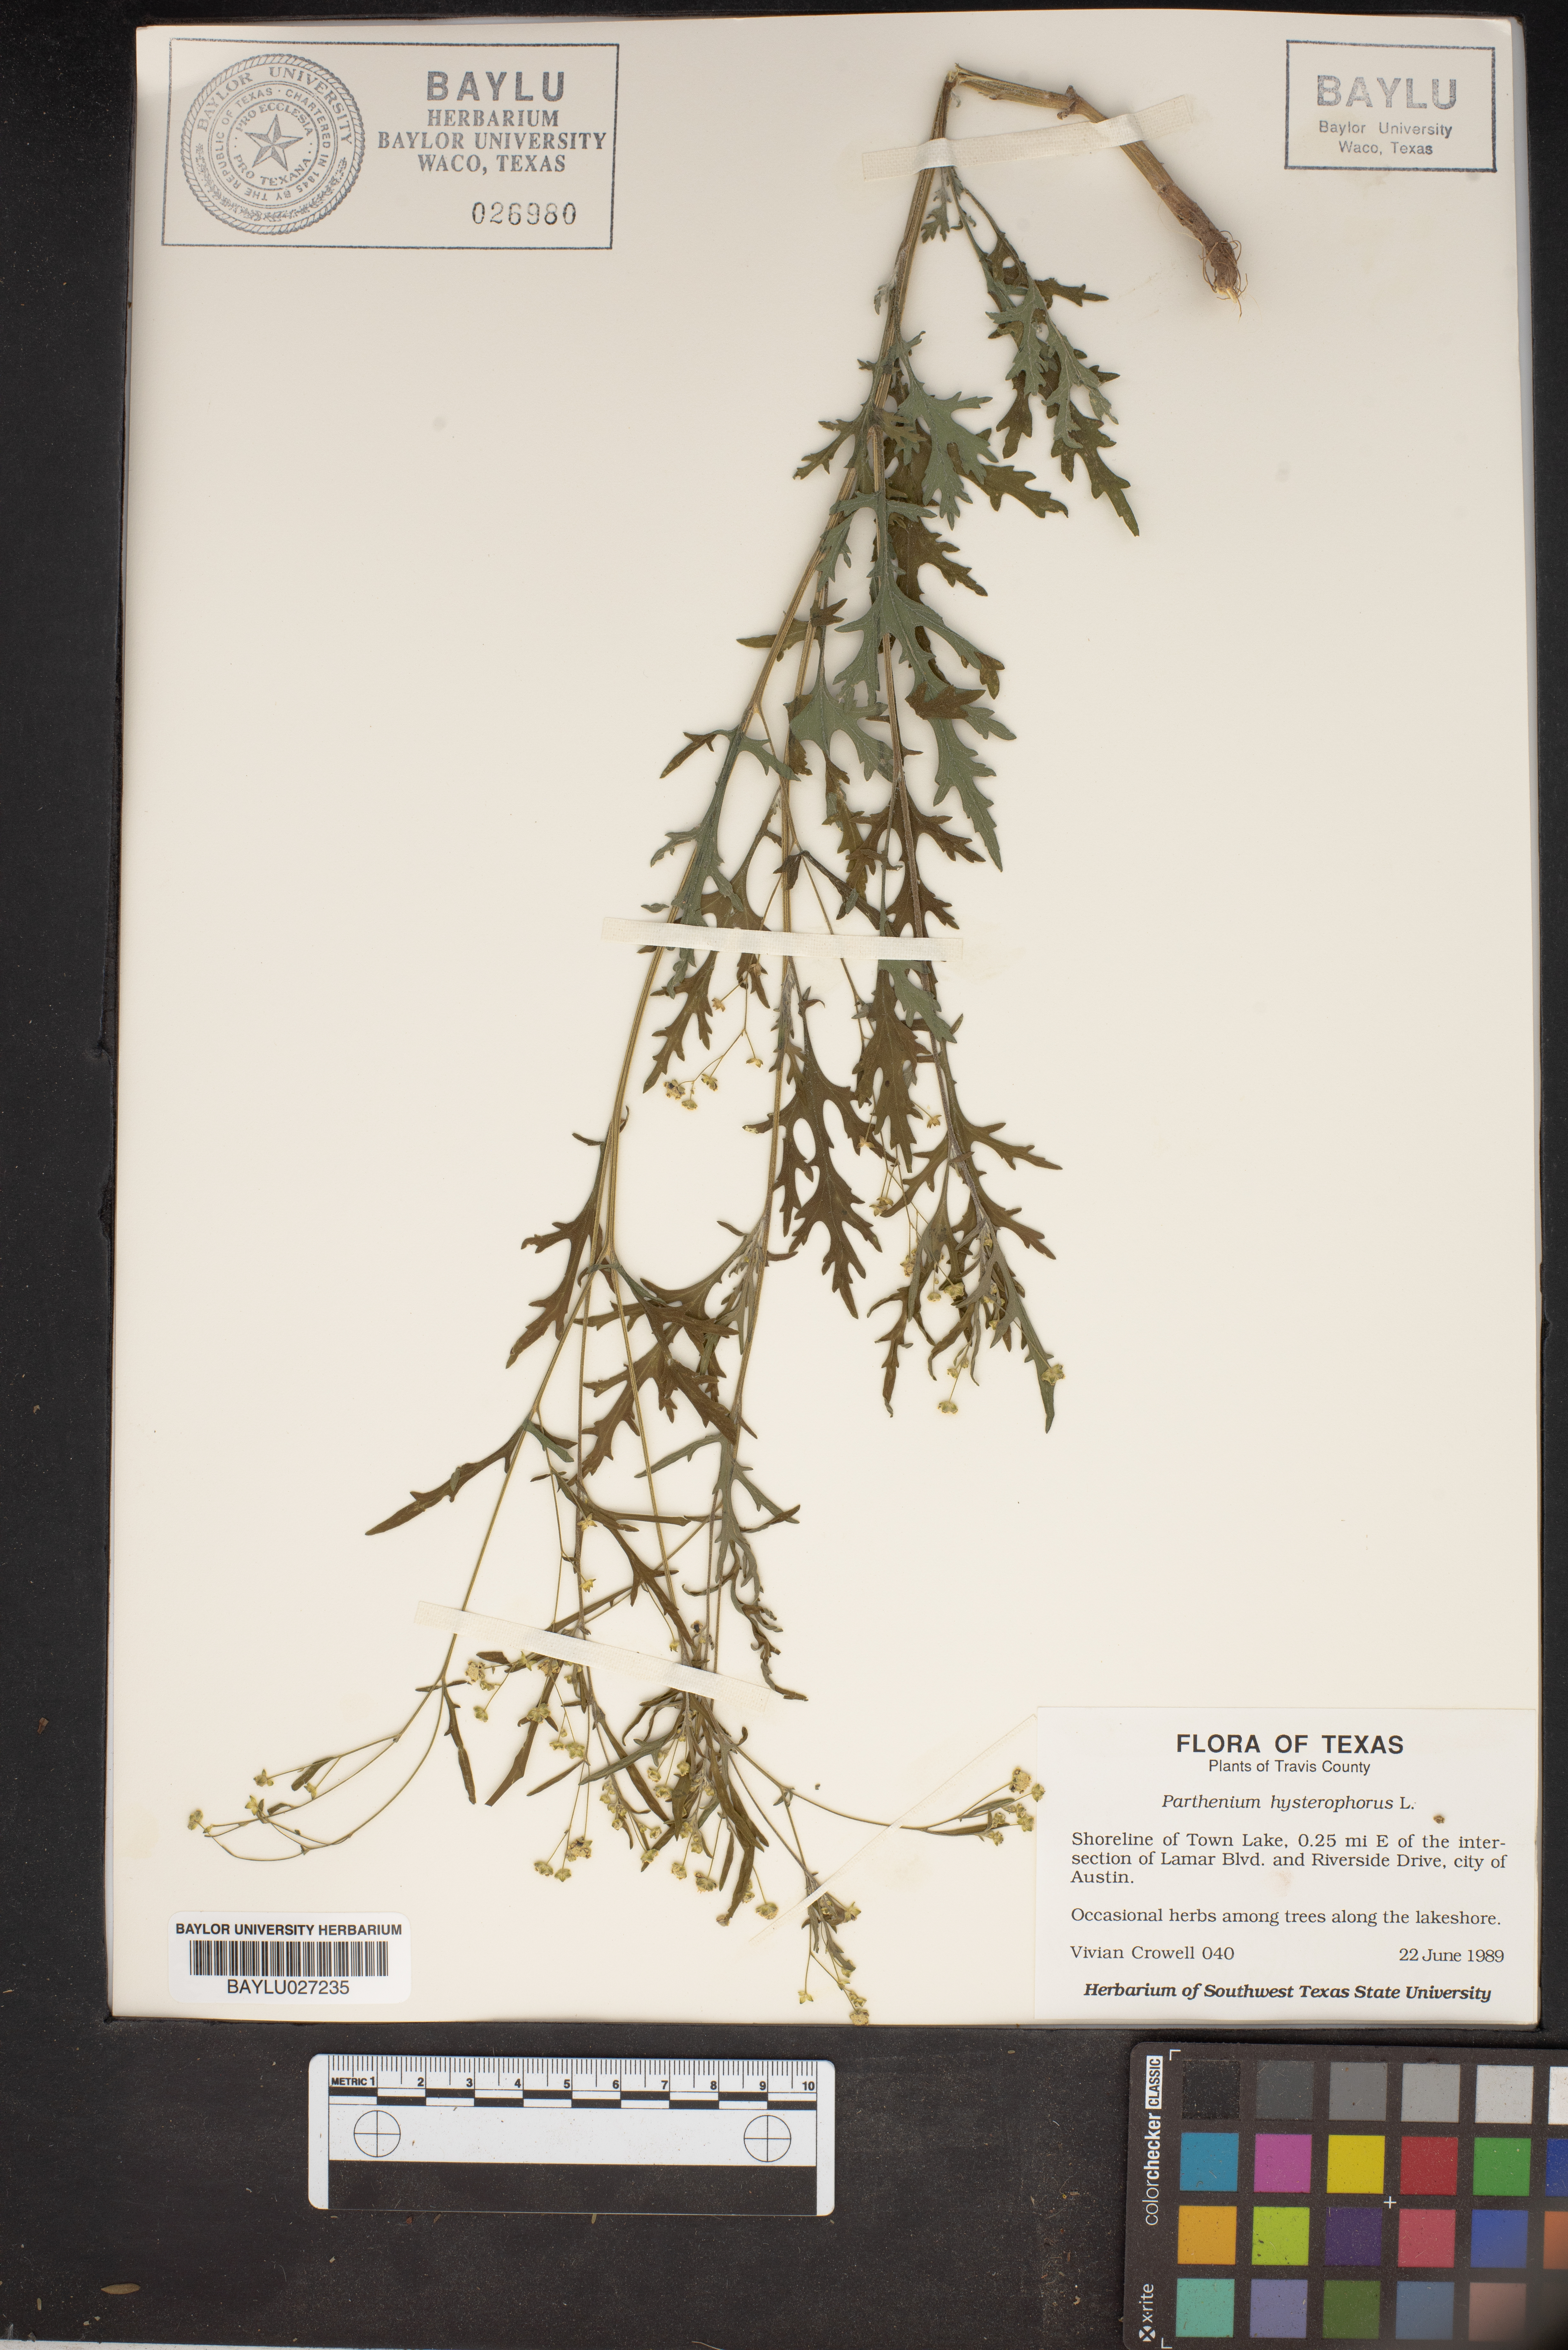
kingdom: Plantae
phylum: Tracheophyta
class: Magnoliopsida
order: Asterales
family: Asteraceae
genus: Parthenium
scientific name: Parthenium hysterophorus
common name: Santa maria feverfew
